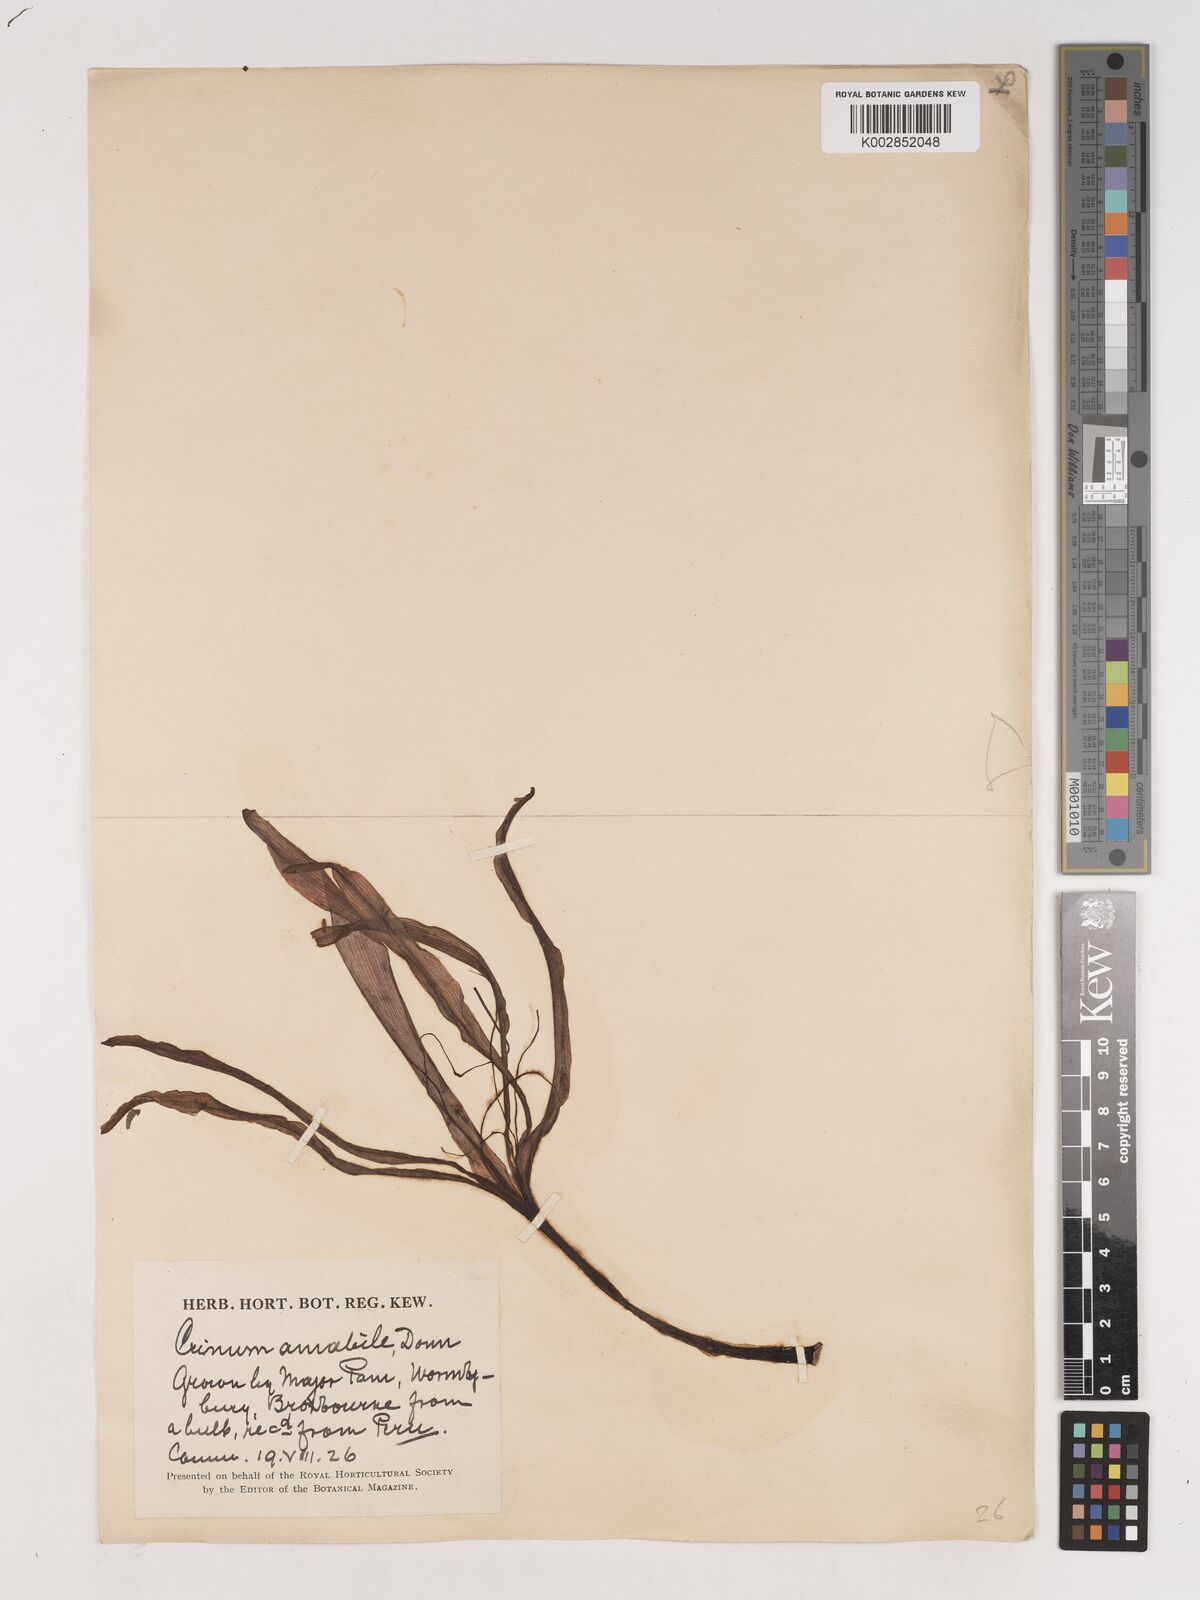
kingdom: Plantae
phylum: Tracheophyta
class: Liliopsida
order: Asparagales
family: Amaryllidaceae
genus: Crinum
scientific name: Crinum amabile
